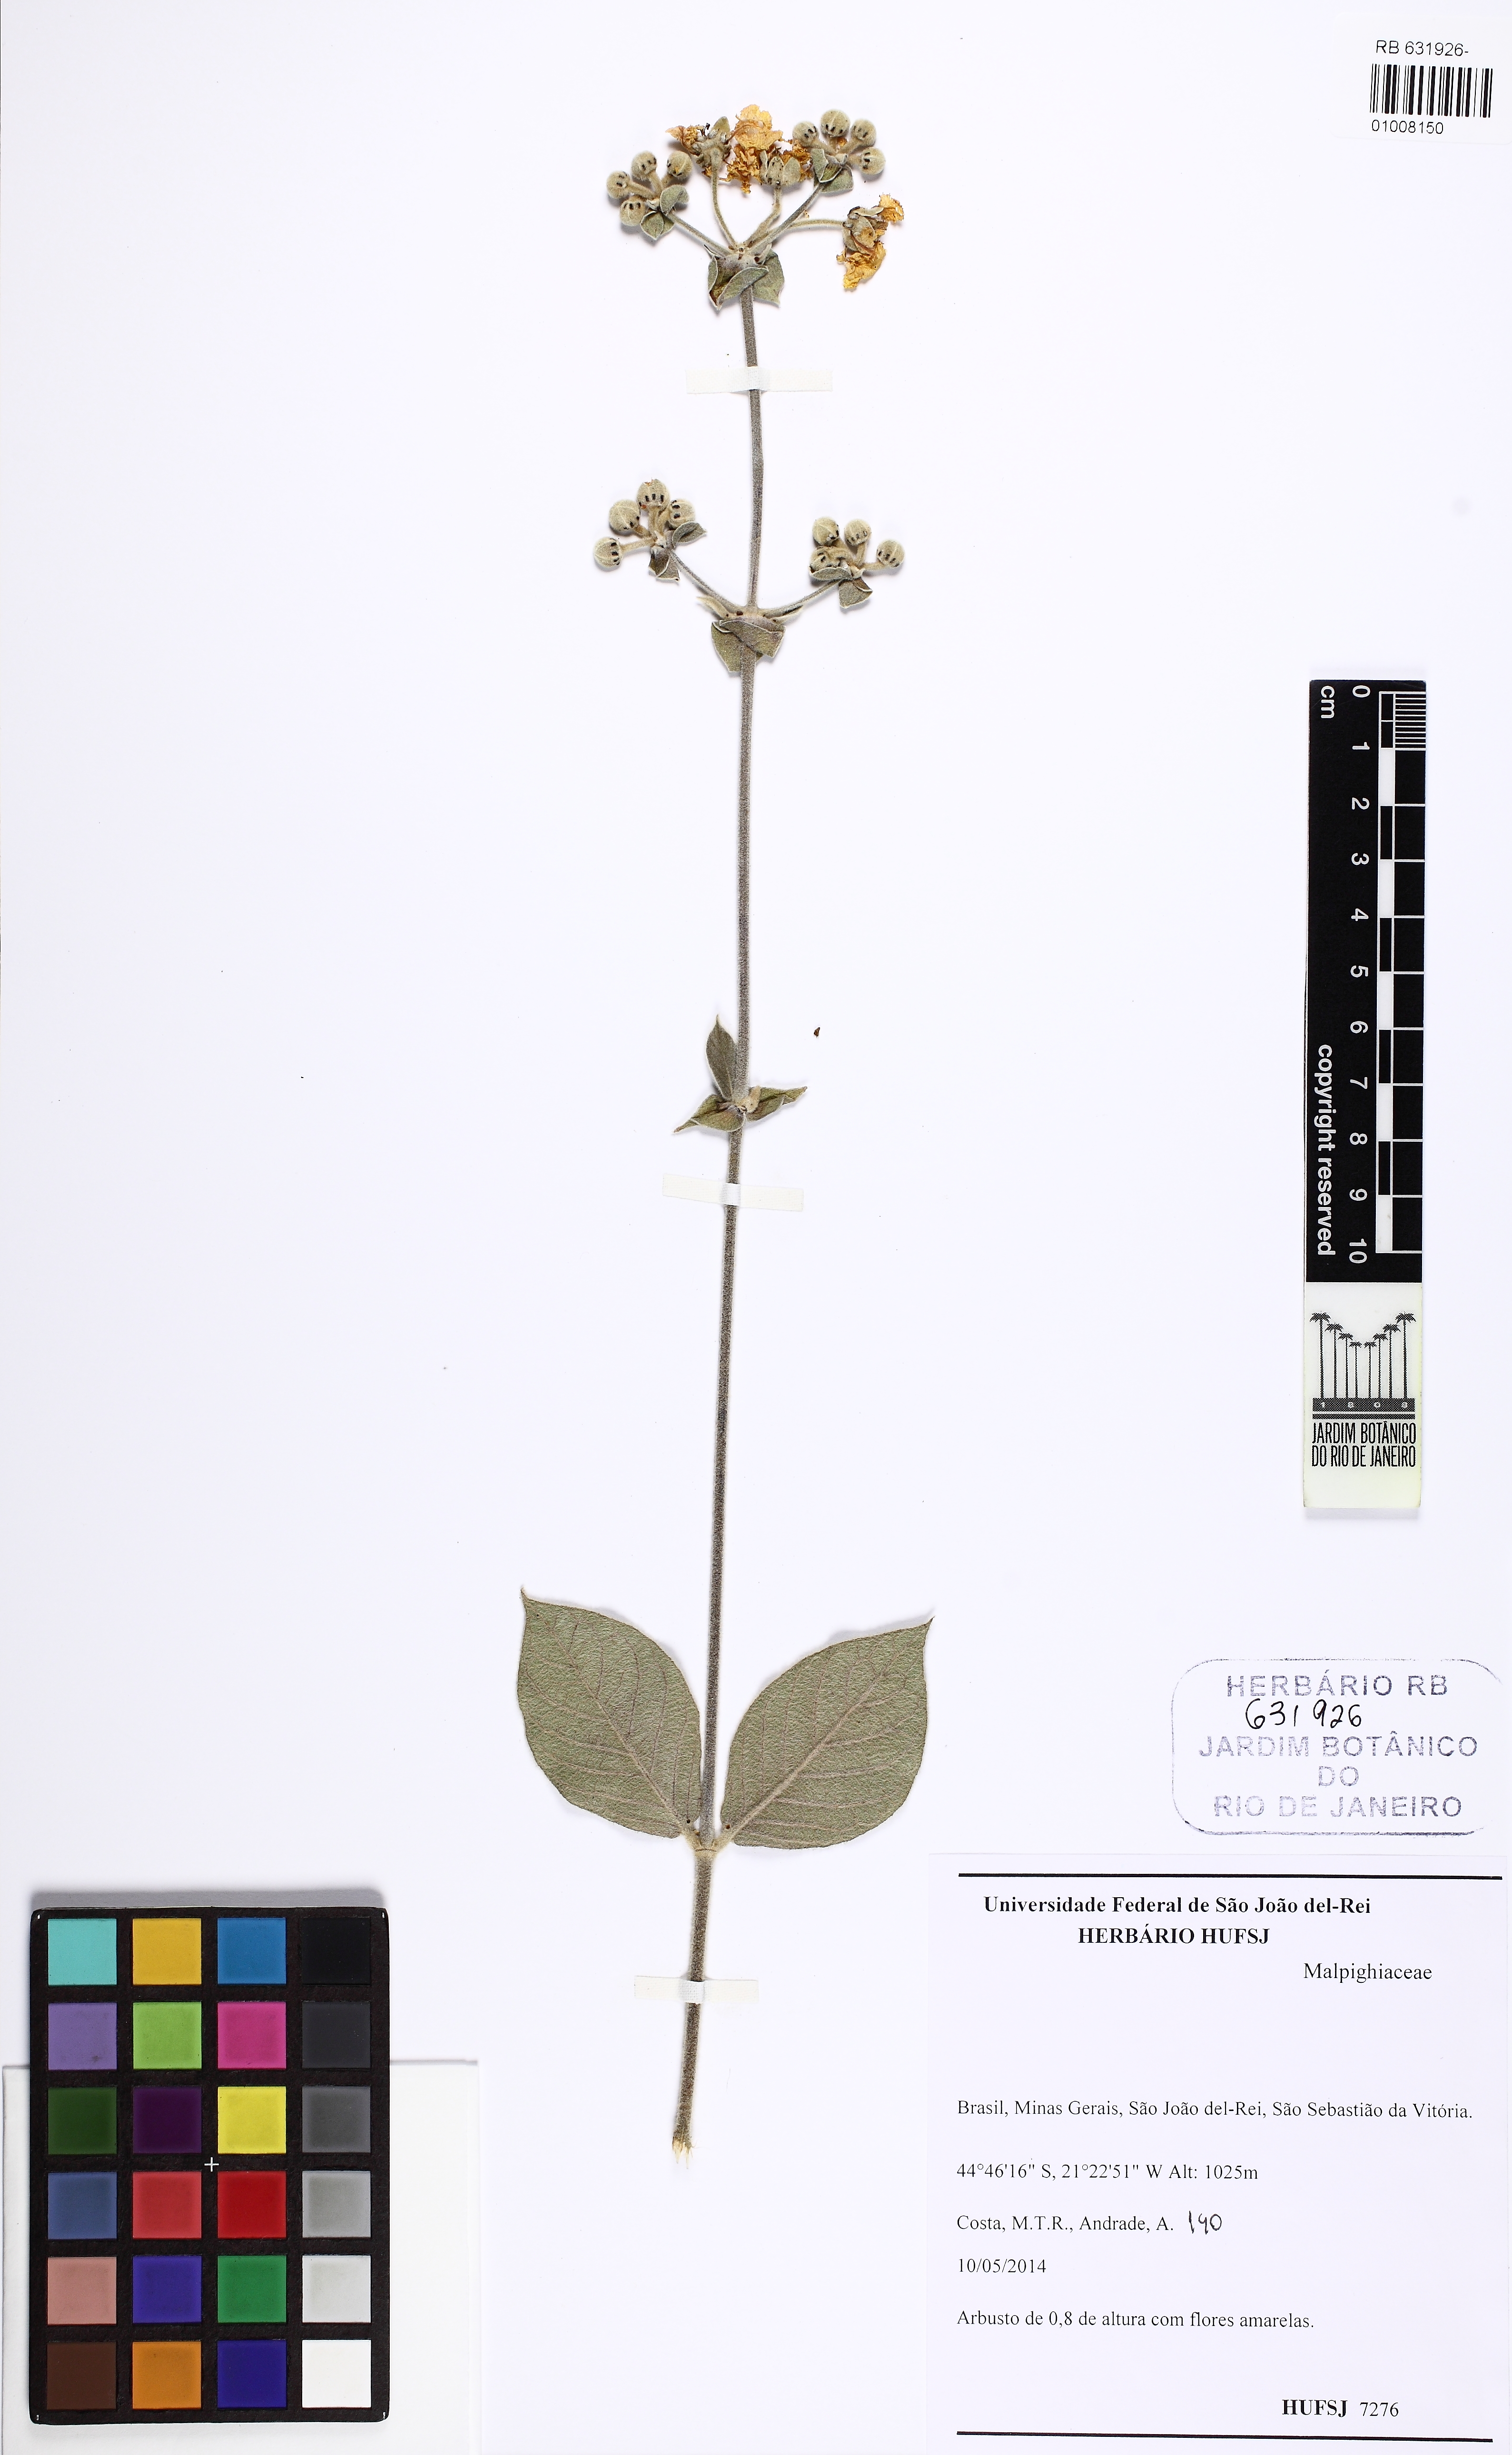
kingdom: Plantae
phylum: Tracheophyta
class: Magnoliopsida
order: Malpighiales
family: Malpighiaceae
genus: Peixotoa
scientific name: Peixotoa
